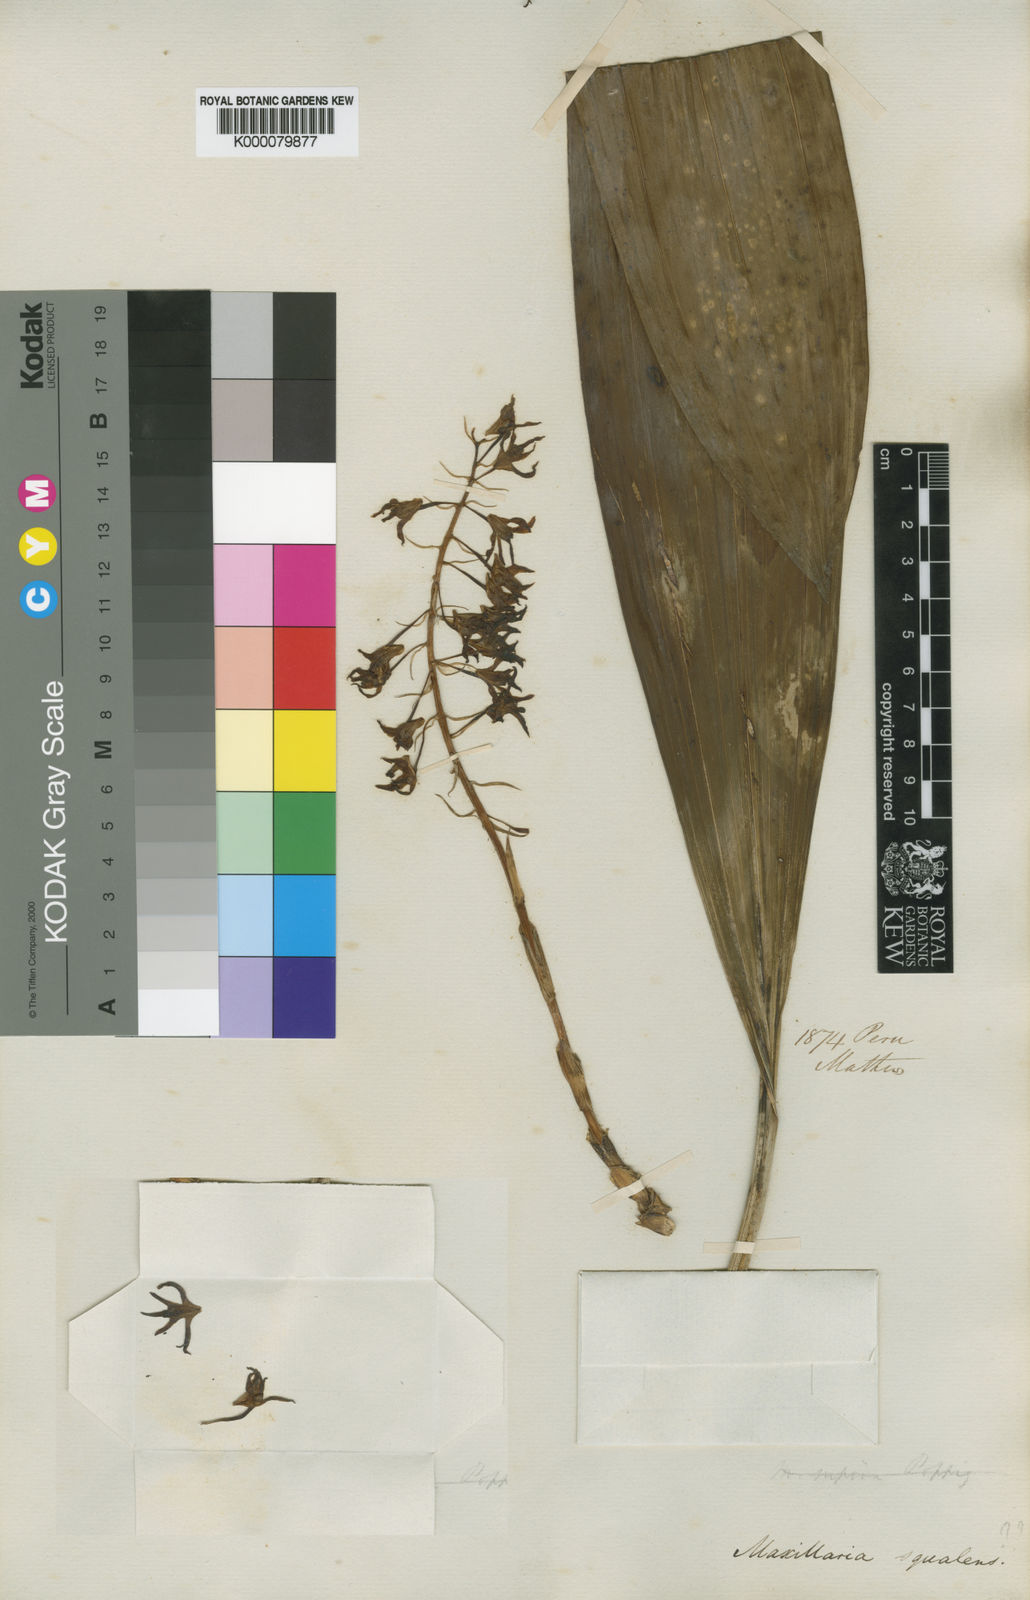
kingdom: Plantae
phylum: Tracheophyta
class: Liliopsida
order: Asparagales
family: Orchidaceae
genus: Xylobium
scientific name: Xylobium squalens
